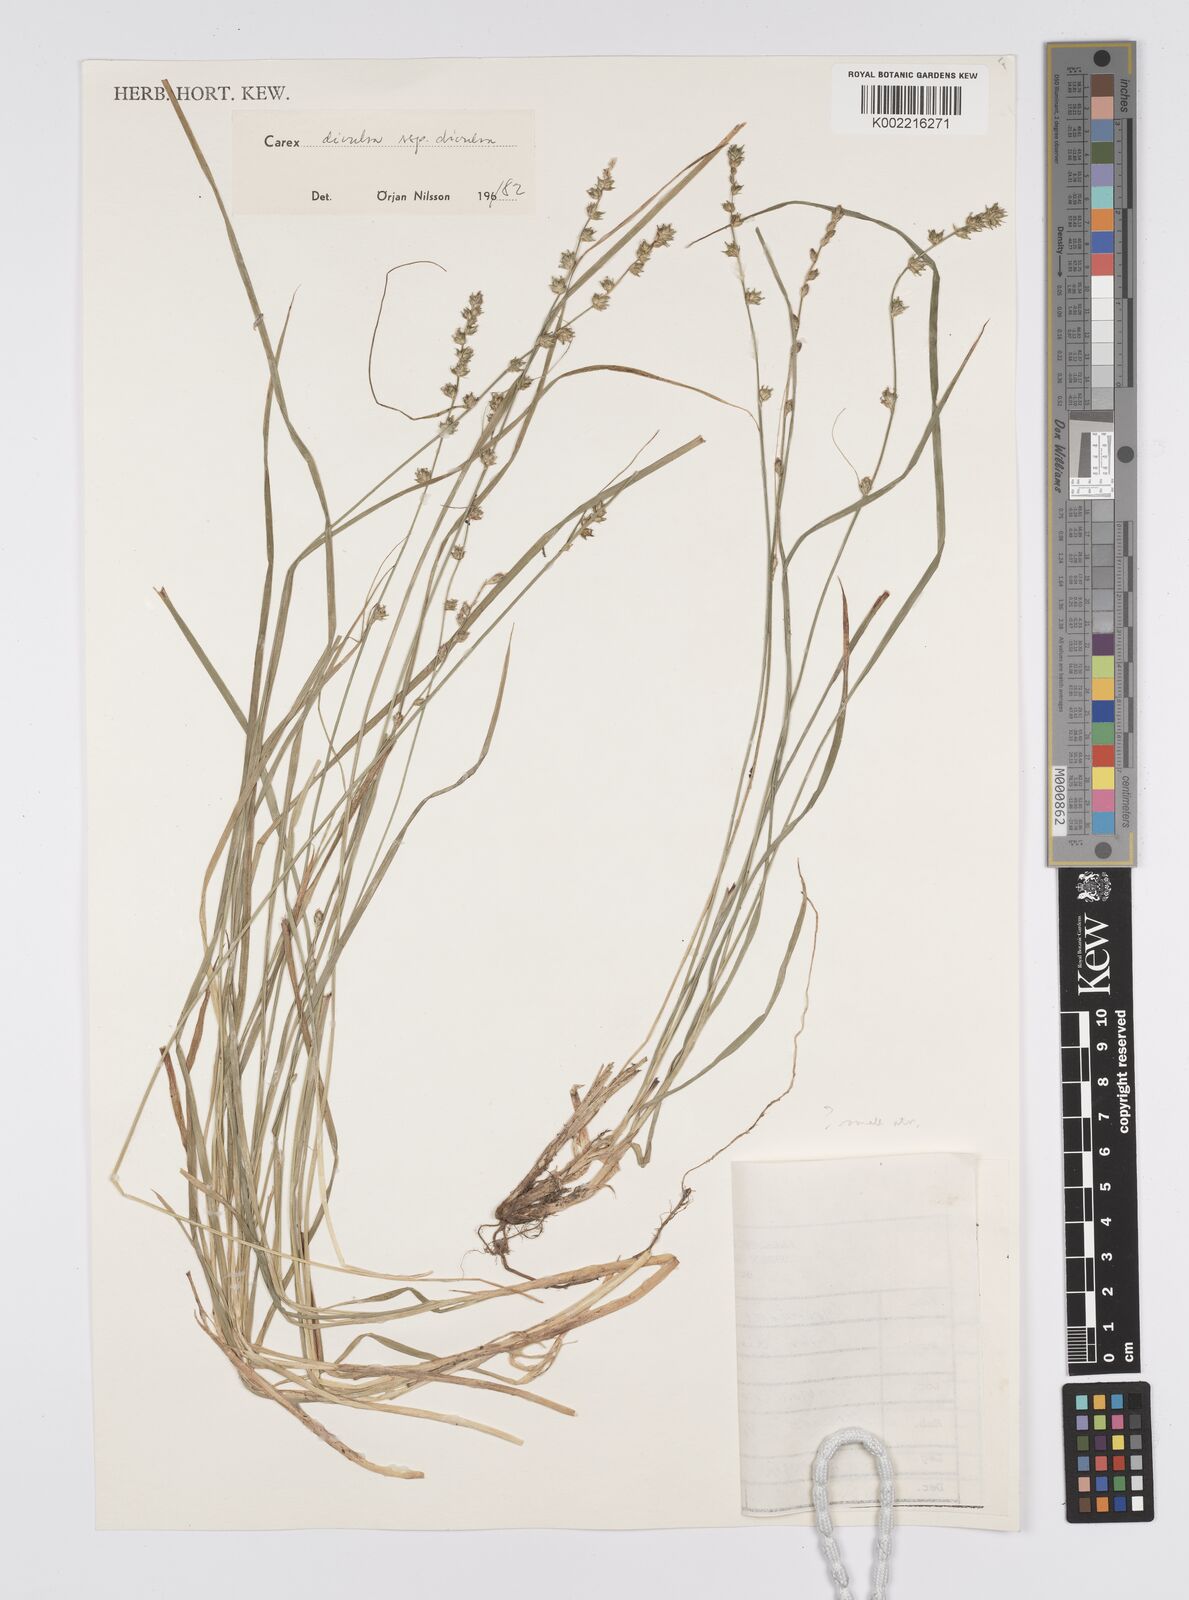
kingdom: Plantae
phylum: Tracheophyta
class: Liliopsida
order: Poales
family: Cyperaceae
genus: Carex
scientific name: Carex divulsa
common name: Grassland sedge
